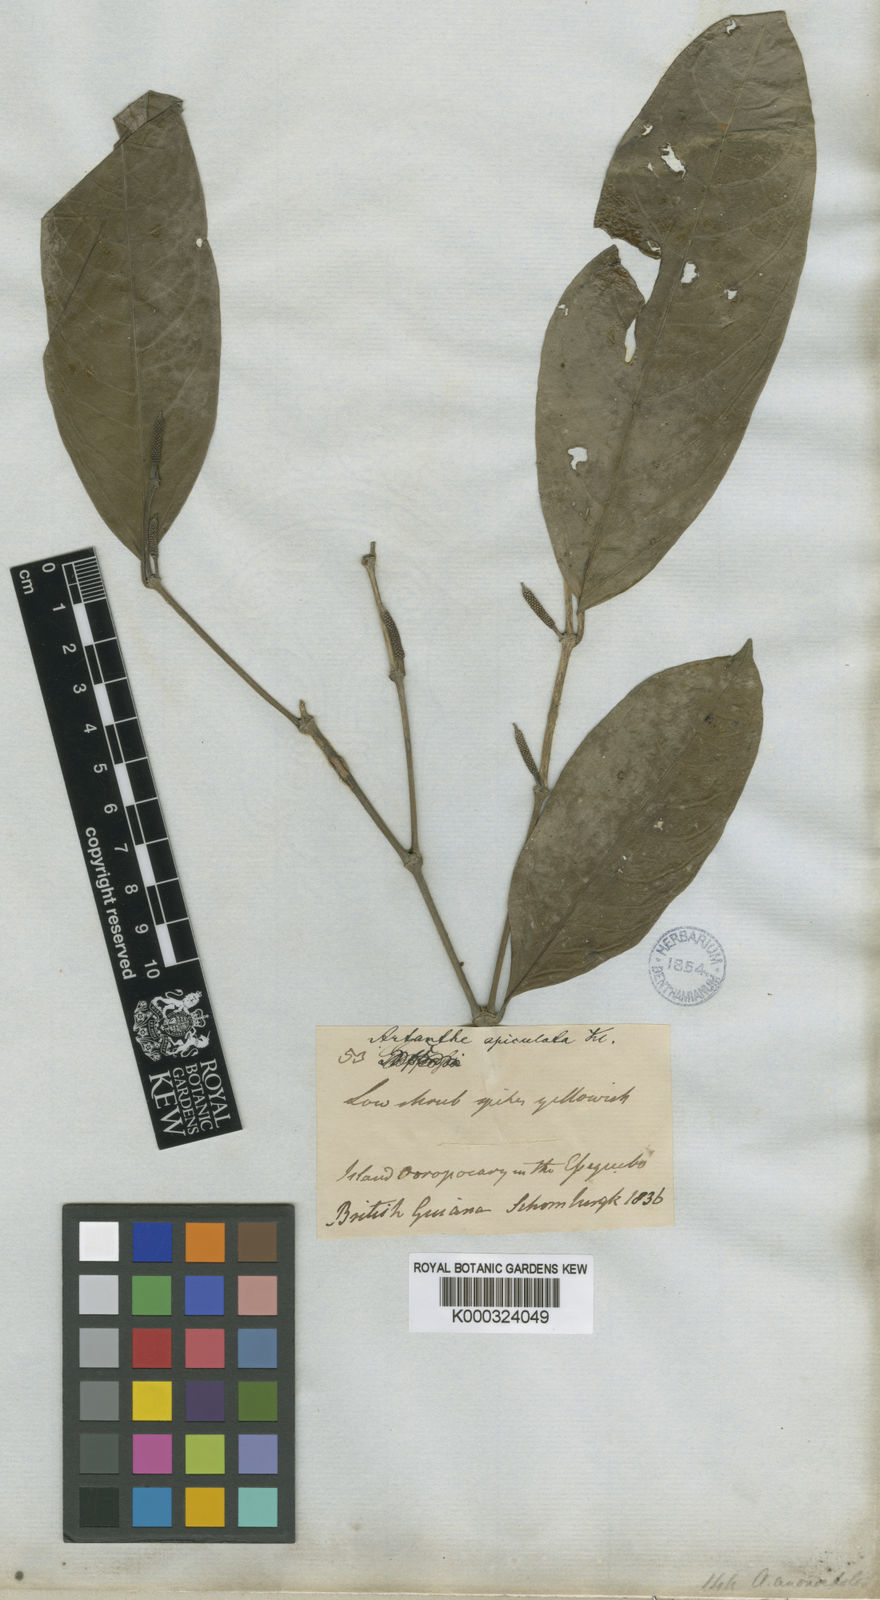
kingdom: Plantae
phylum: Tracheophyta
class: Magnoliopsida
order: Piperales
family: Piperaceae
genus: Piper
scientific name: Piper
